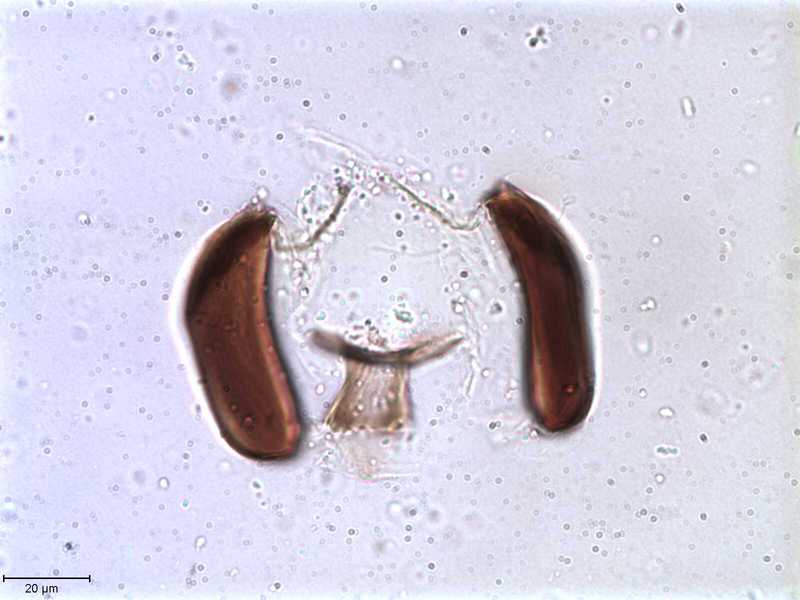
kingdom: Animalia
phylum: Arthropoda
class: Arachnida
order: Sarcoptiformes
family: Tegoribatidae
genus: Plakoribates
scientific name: Plakoribates multicuspidatus
